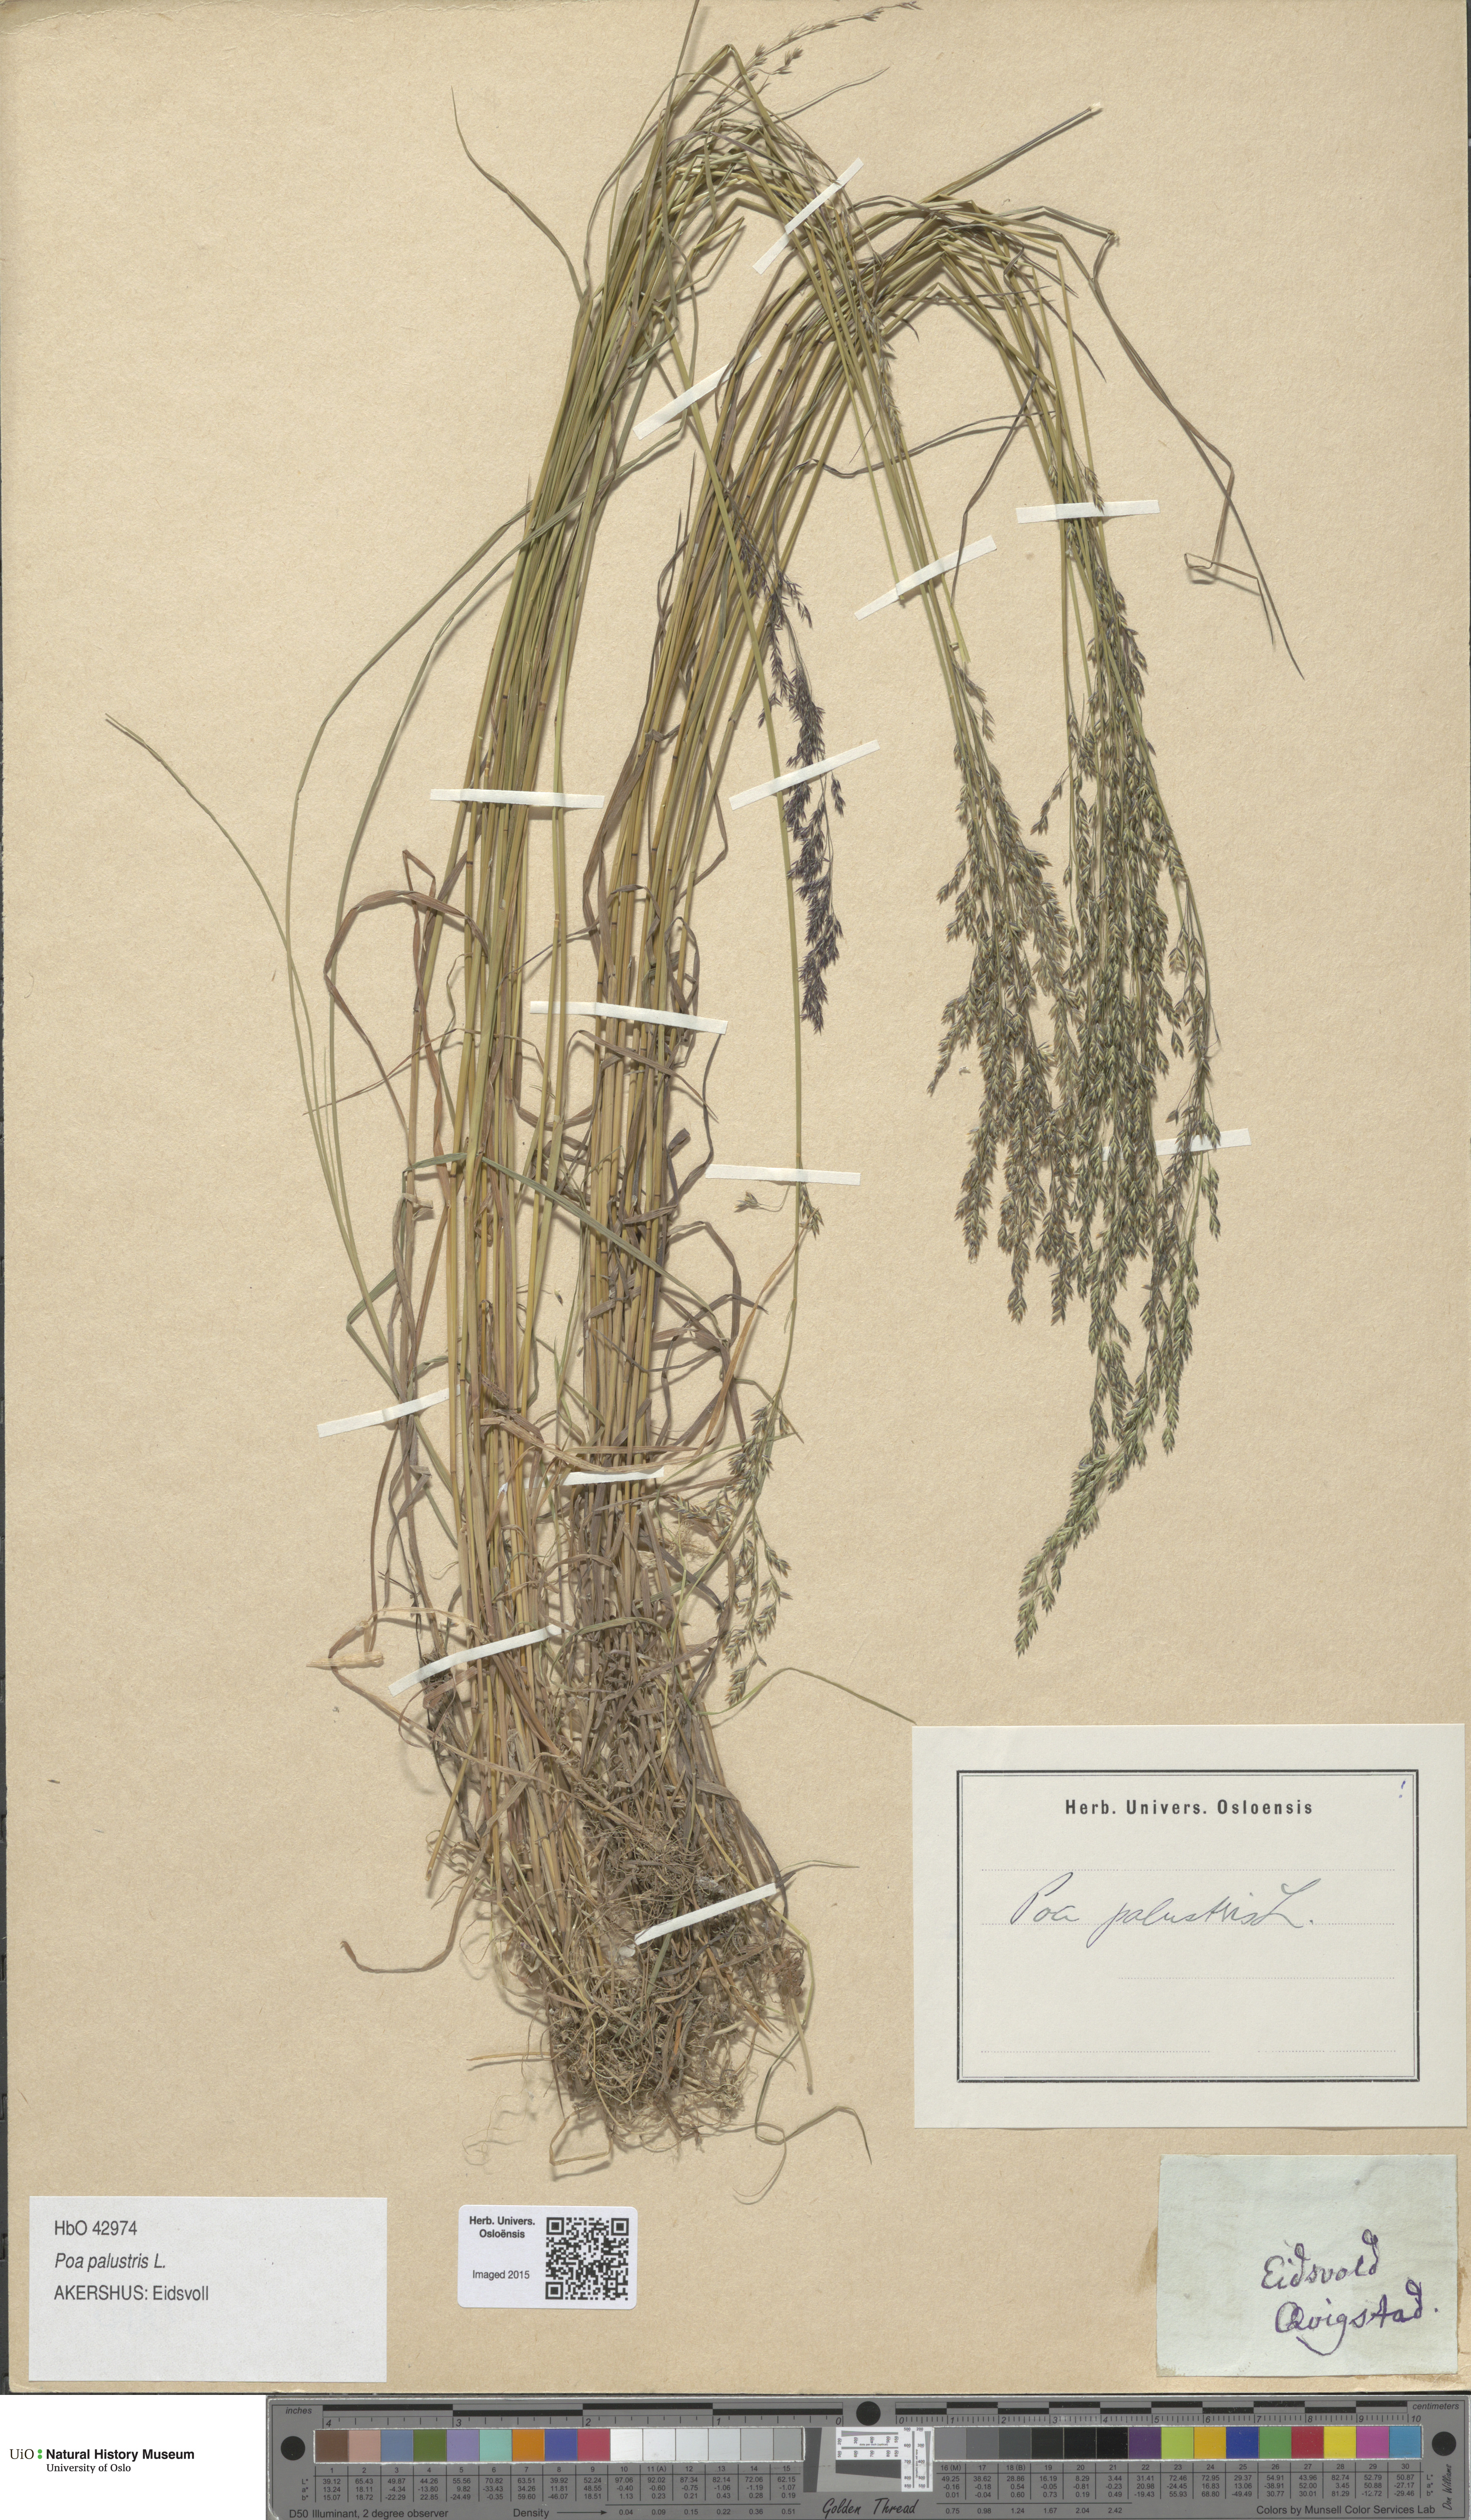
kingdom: Plantae
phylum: Tracheophyta
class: Liliopsida
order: Poales
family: Poaceae
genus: Poa
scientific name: Poa palustris
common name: Swamp meadow-grass
